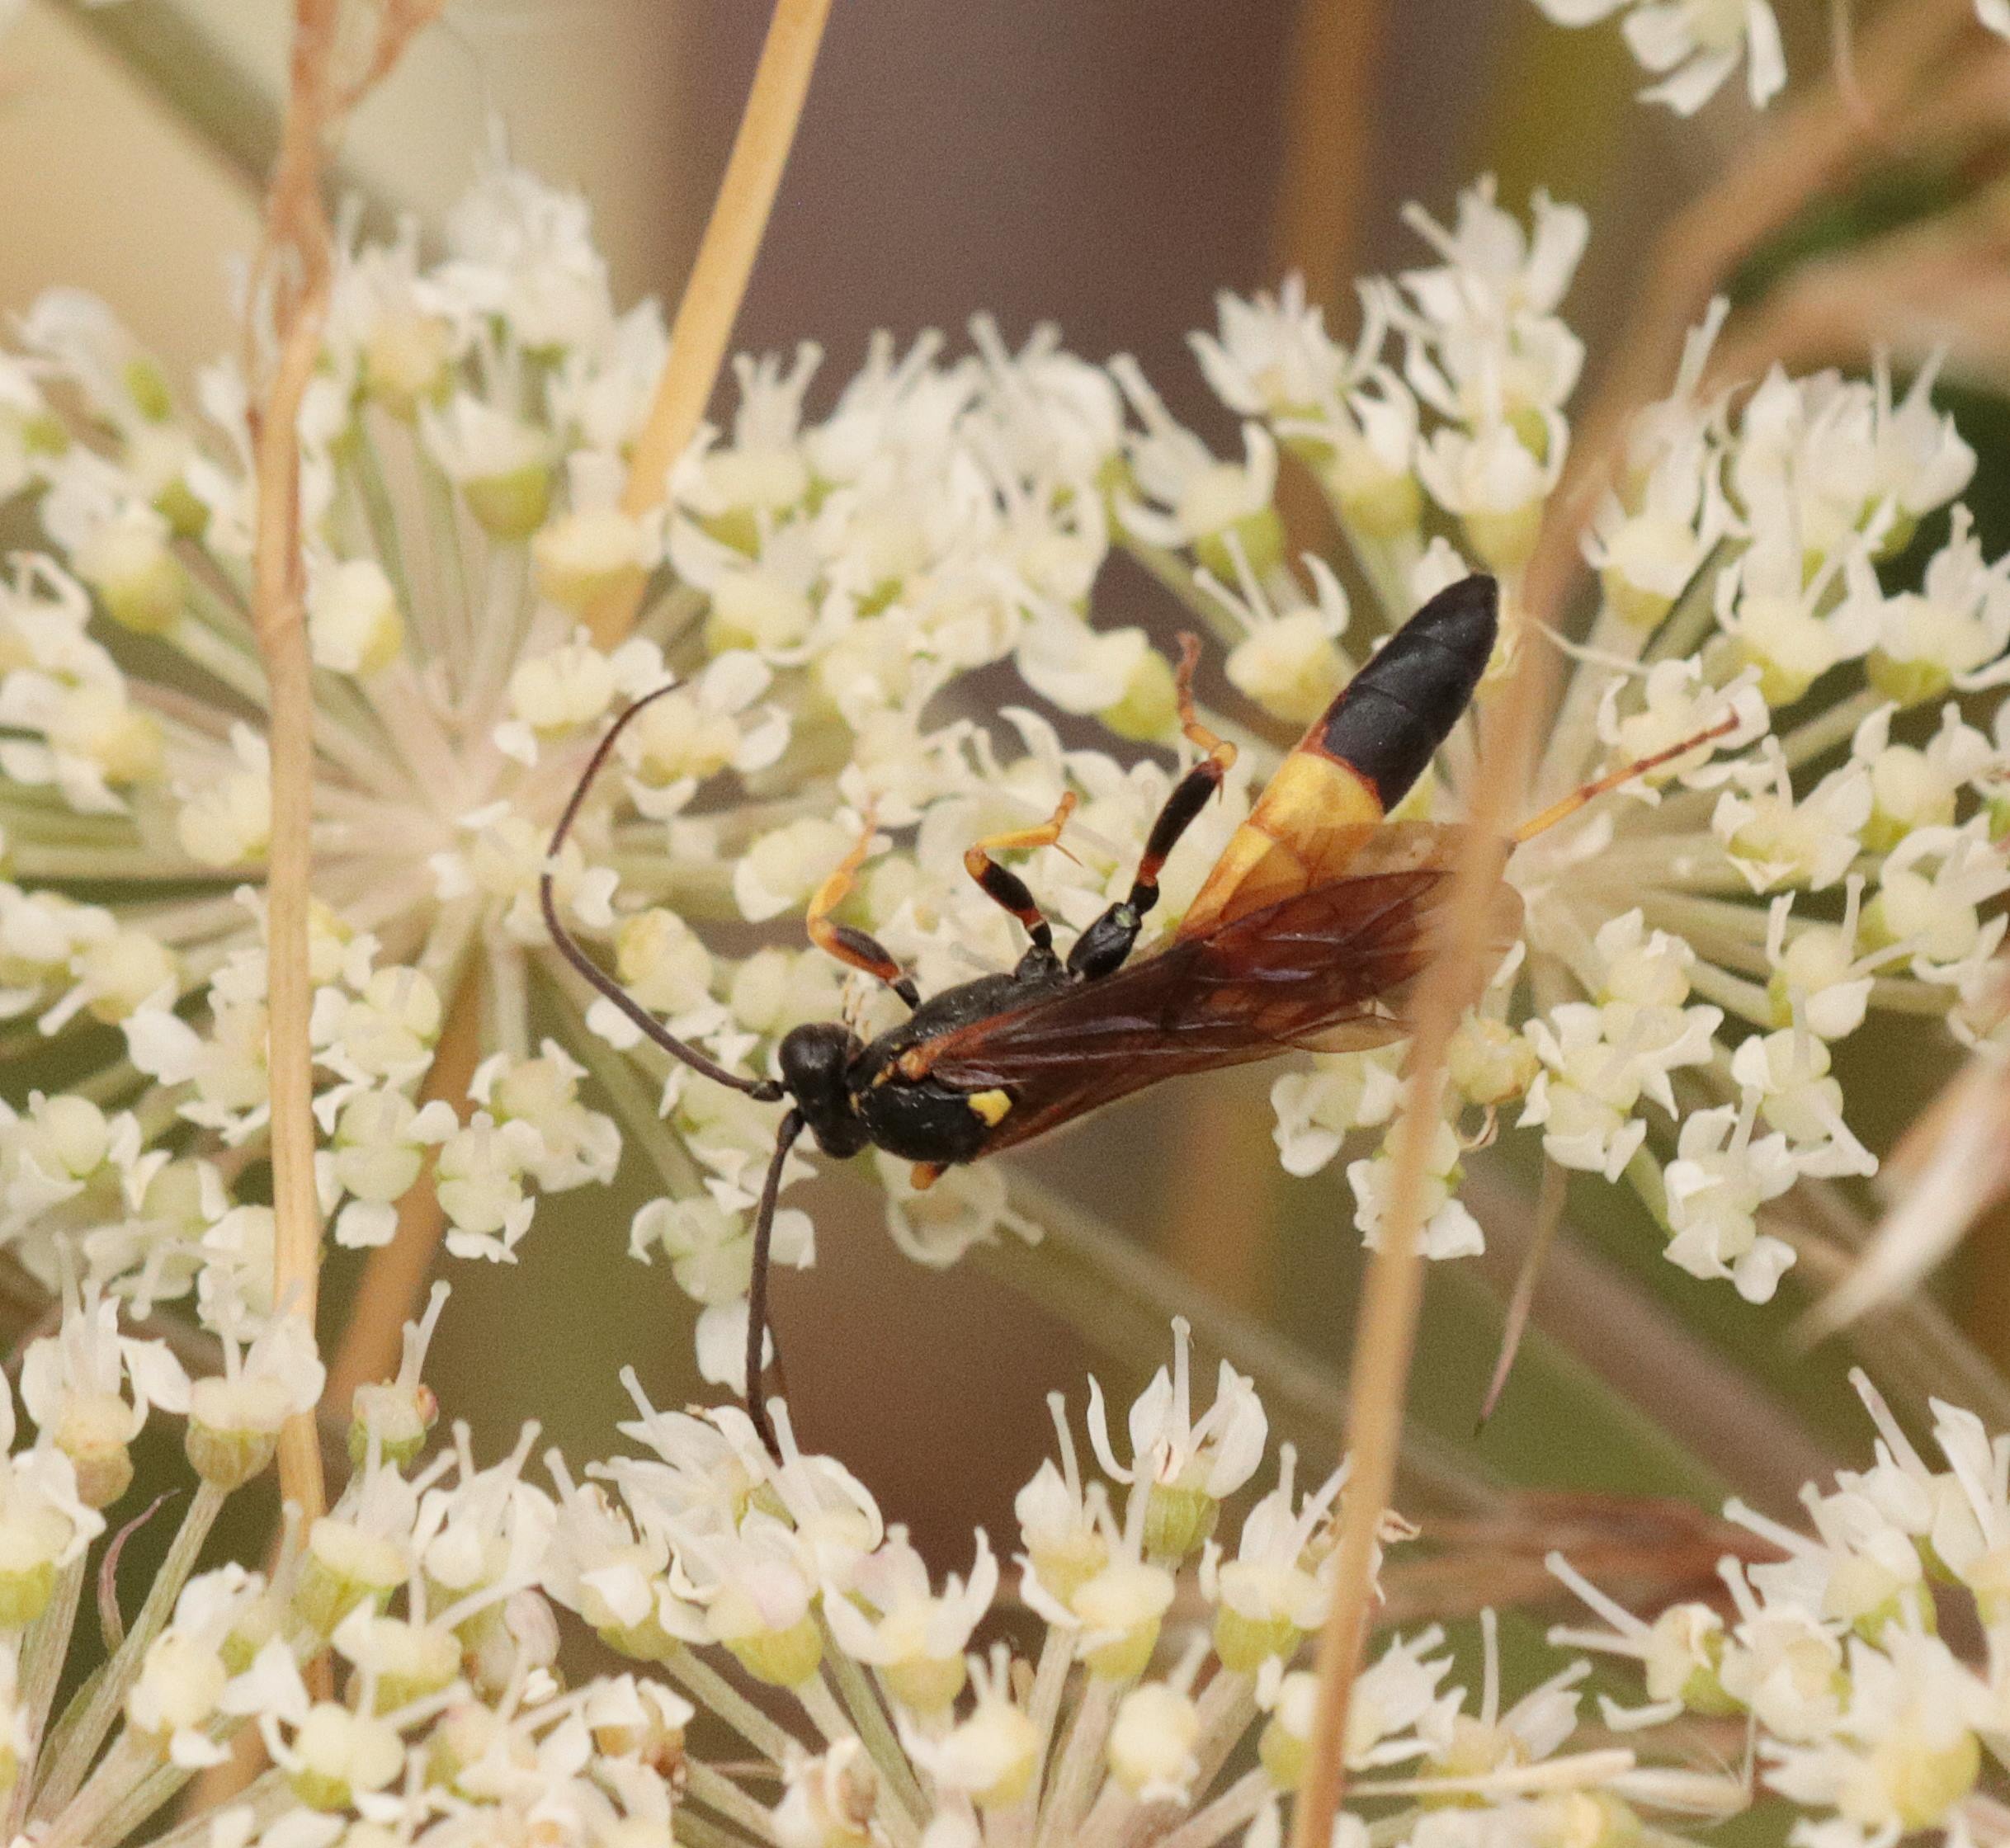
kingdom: Animalia
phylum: Arthropoda
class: Insecta
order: Hymenoptera
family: Ichneumonidae
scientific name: Ichneumonidae
